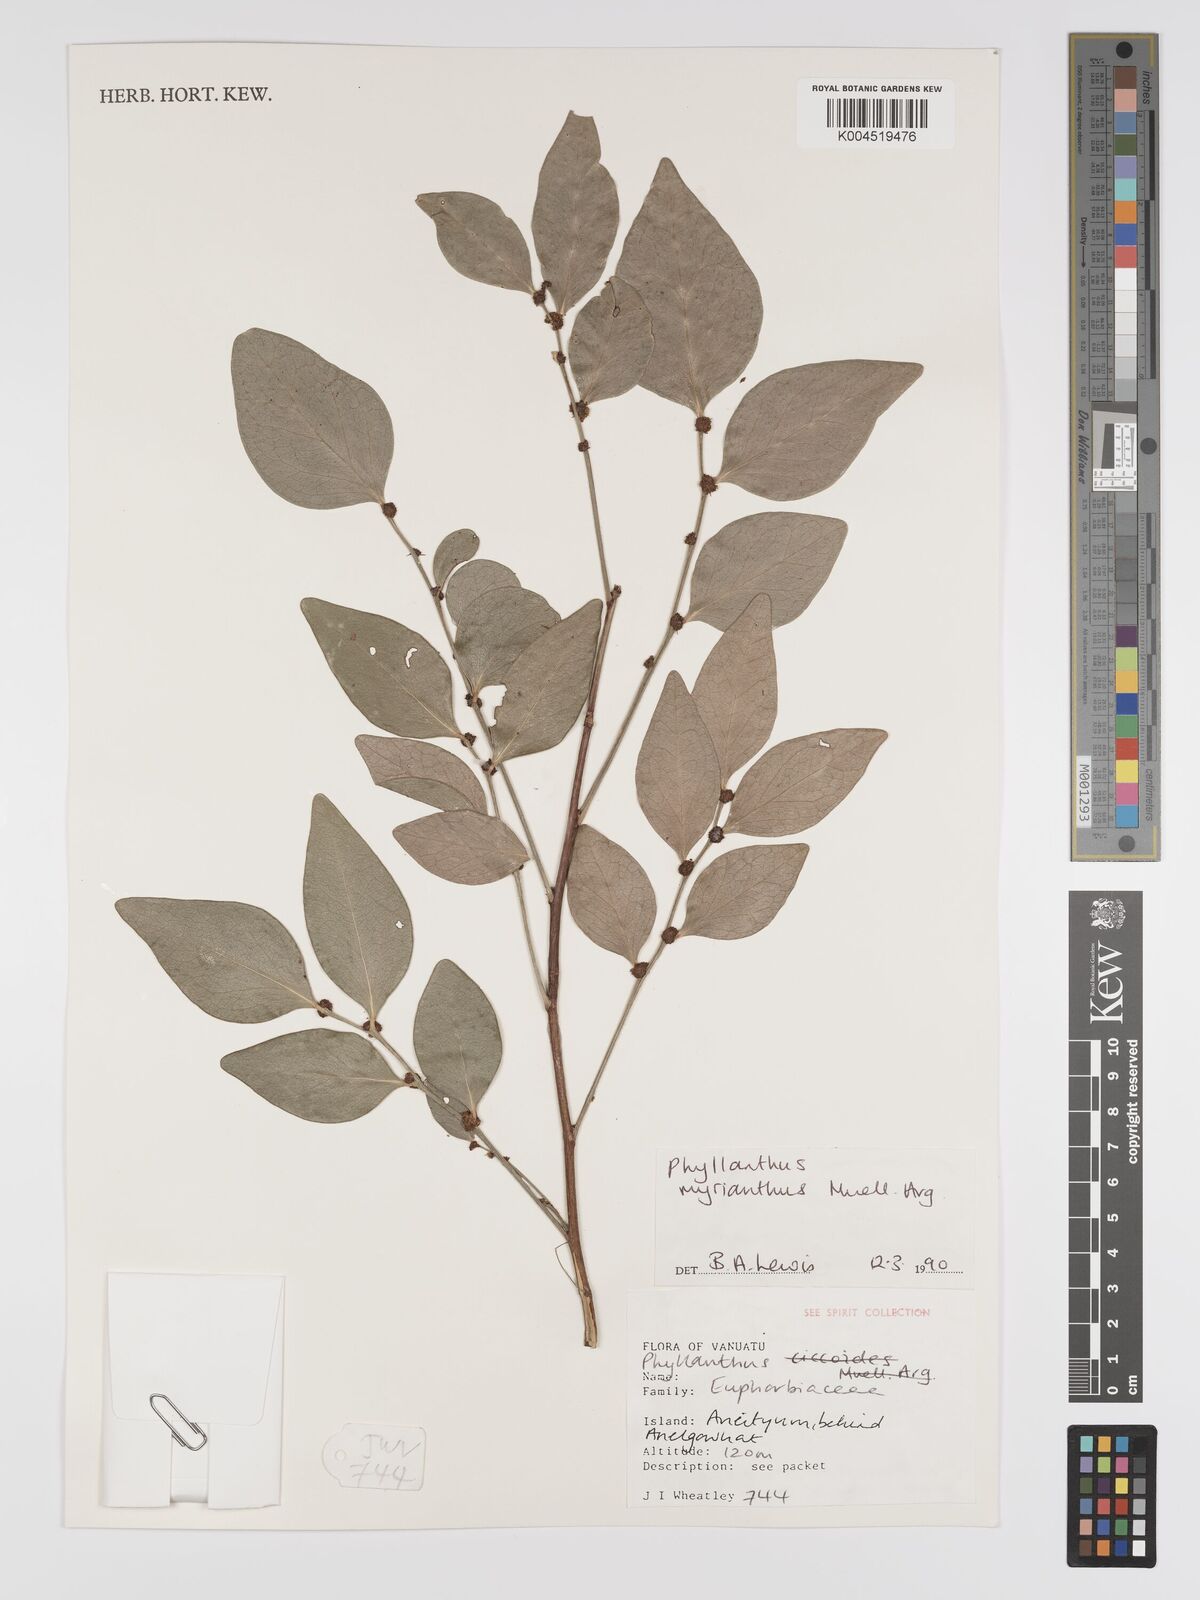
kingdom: Plantae
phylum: Tracheophyta
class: Magnoliopsida
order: Malpighiales
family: Phyllanthaceae
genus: Glochidion
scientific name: Glochidion myrianthum
